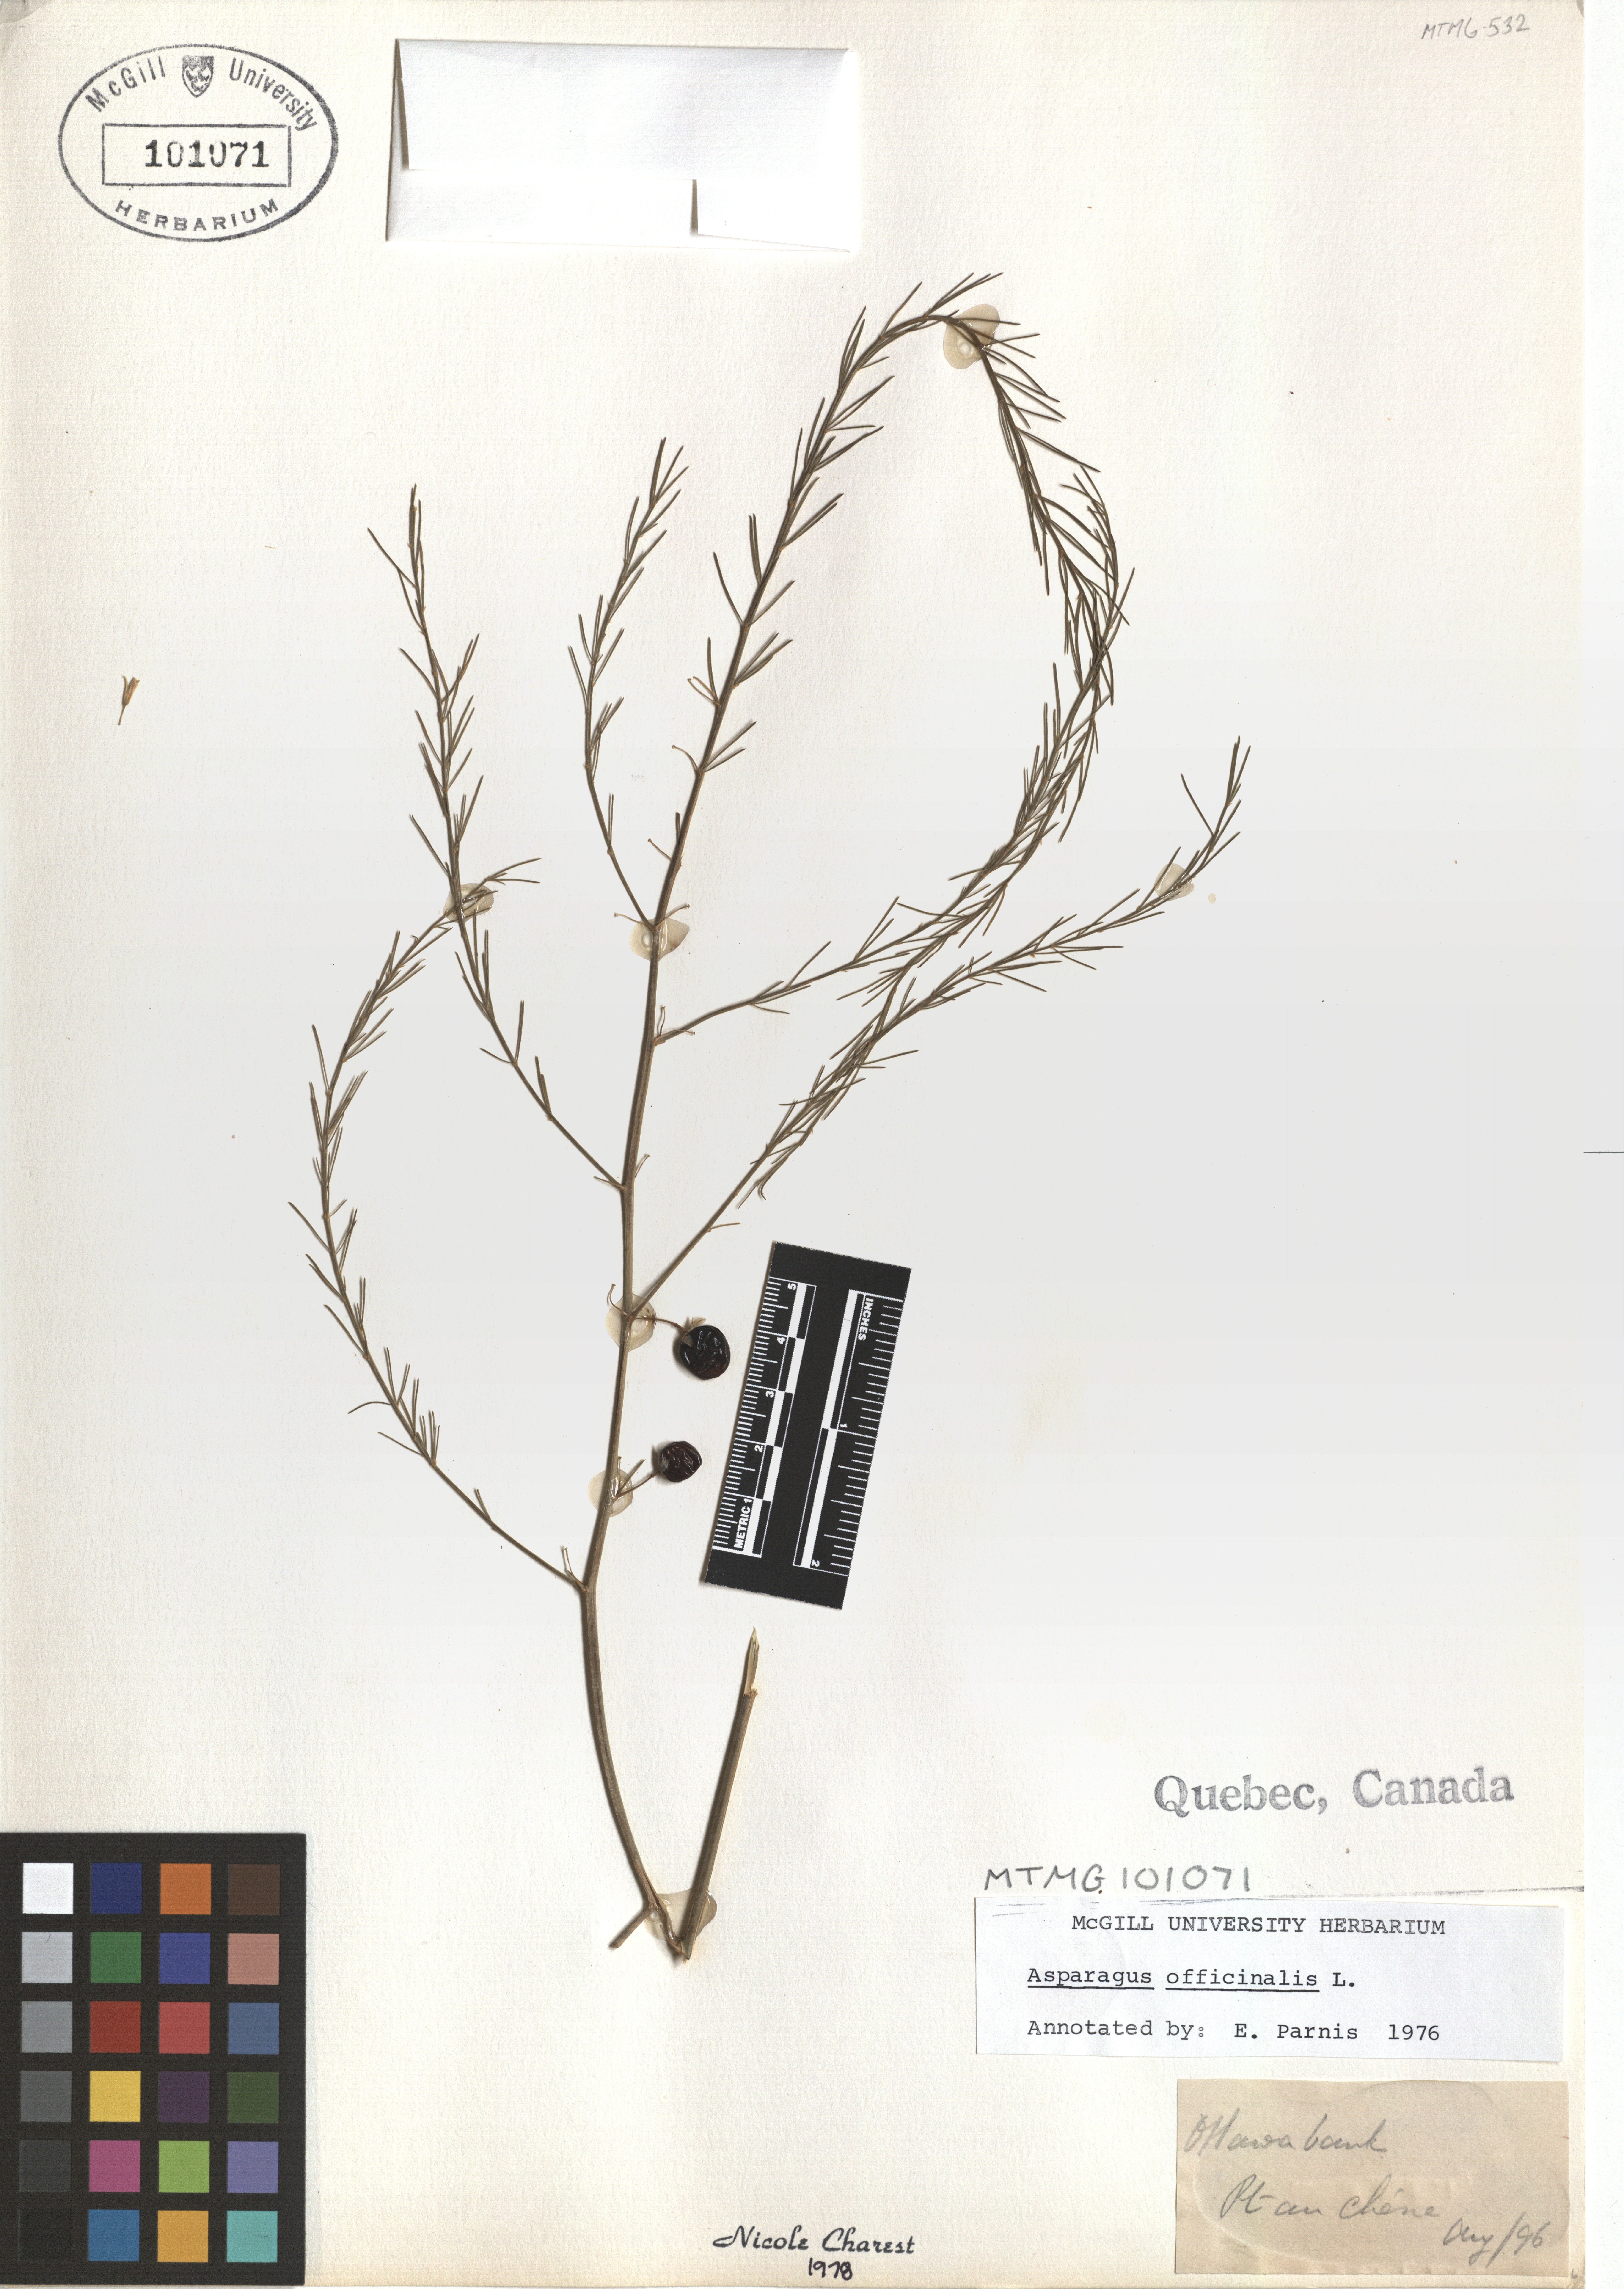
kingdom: Plantae
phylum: Tracheophyta
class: Liliopsida
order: Asparagales
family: Asparagaceae
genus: Asparagus
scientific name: Asparagus officinalis
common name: Garden asparagus
